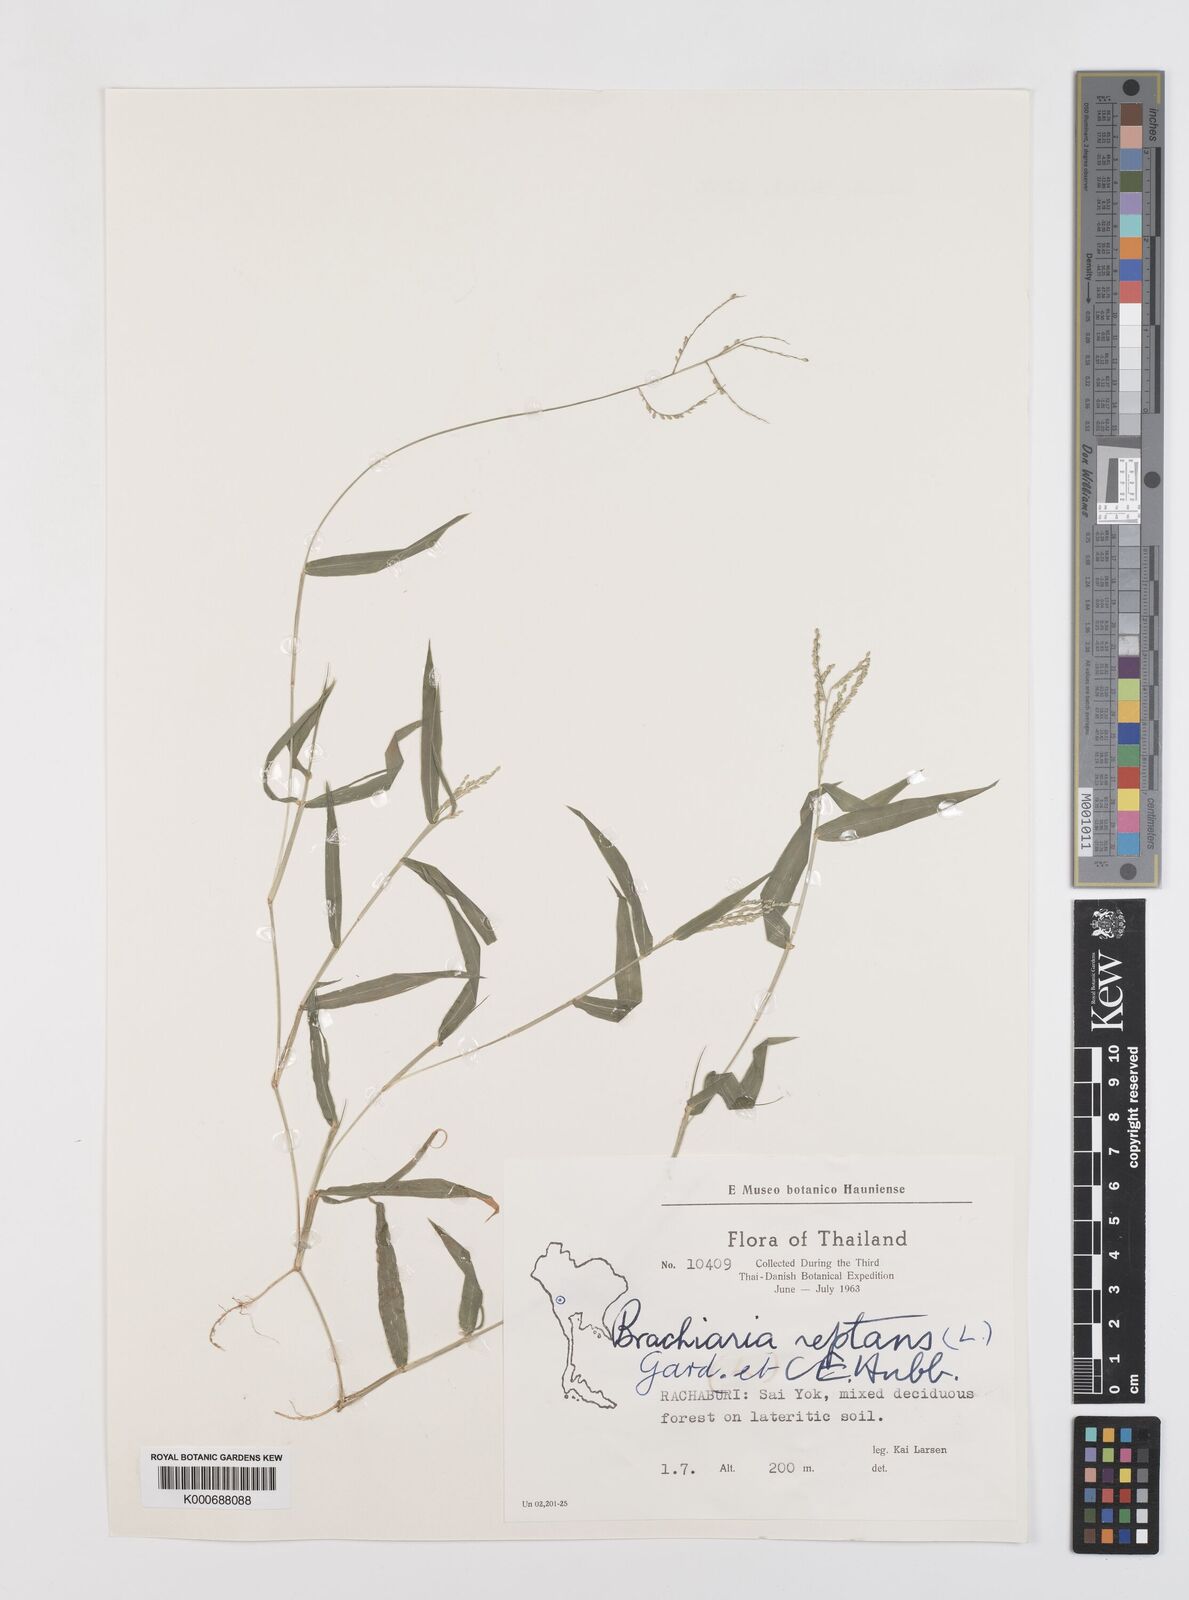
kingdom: Plantae
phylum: Tracheophyta
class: Liliopsida
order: Poales
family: Poaceae
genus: Urochloa
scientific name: Urochloa reptans
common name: Sprawling signalgrass
